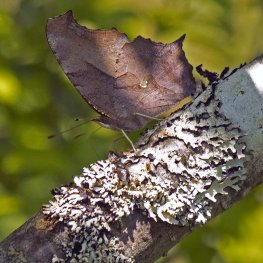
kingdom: Animalia
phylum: Arthropoda
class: Insecta
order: Lepidoptera
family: Nymphalidae
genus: Polygonia
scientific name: Polygonia interrogationis
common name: Question Mark
